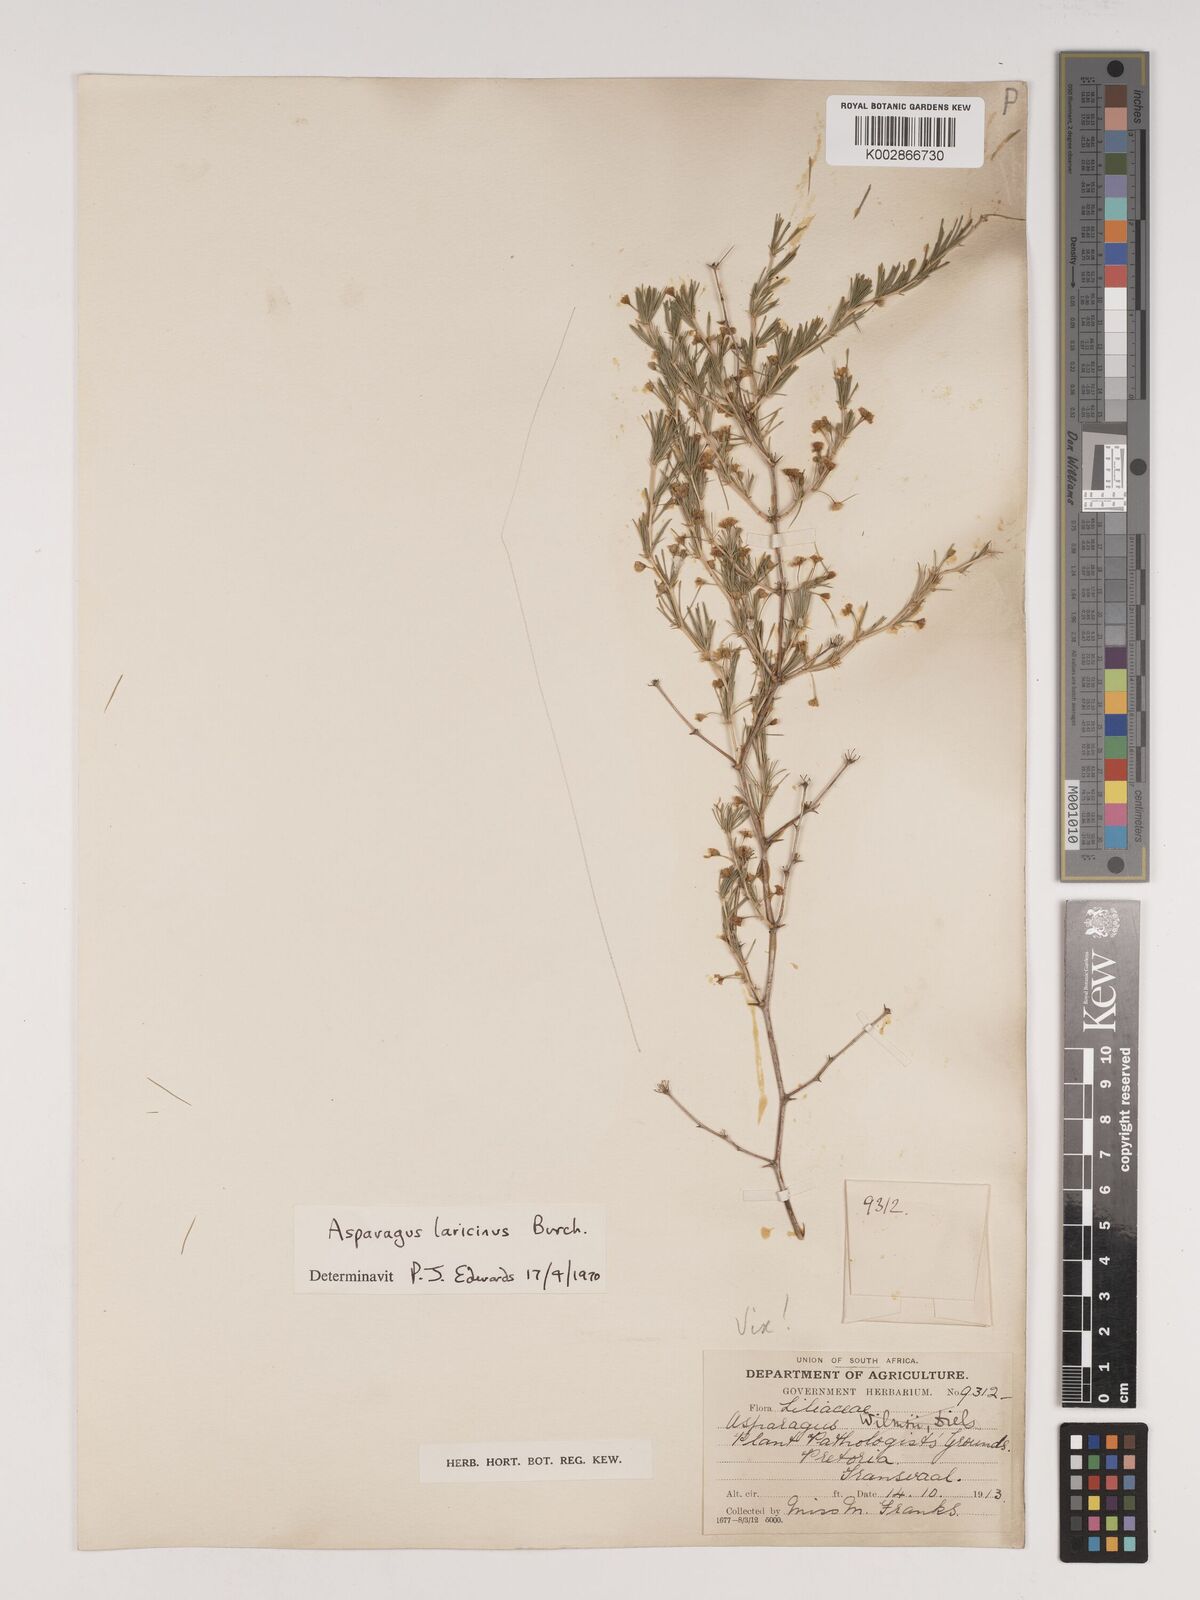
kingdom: Plantae
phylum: Tracheophyta
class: Liliopsida
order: Asparagales
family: Asparagaceae
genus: Asparagus
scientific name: Asparagus laricinus
